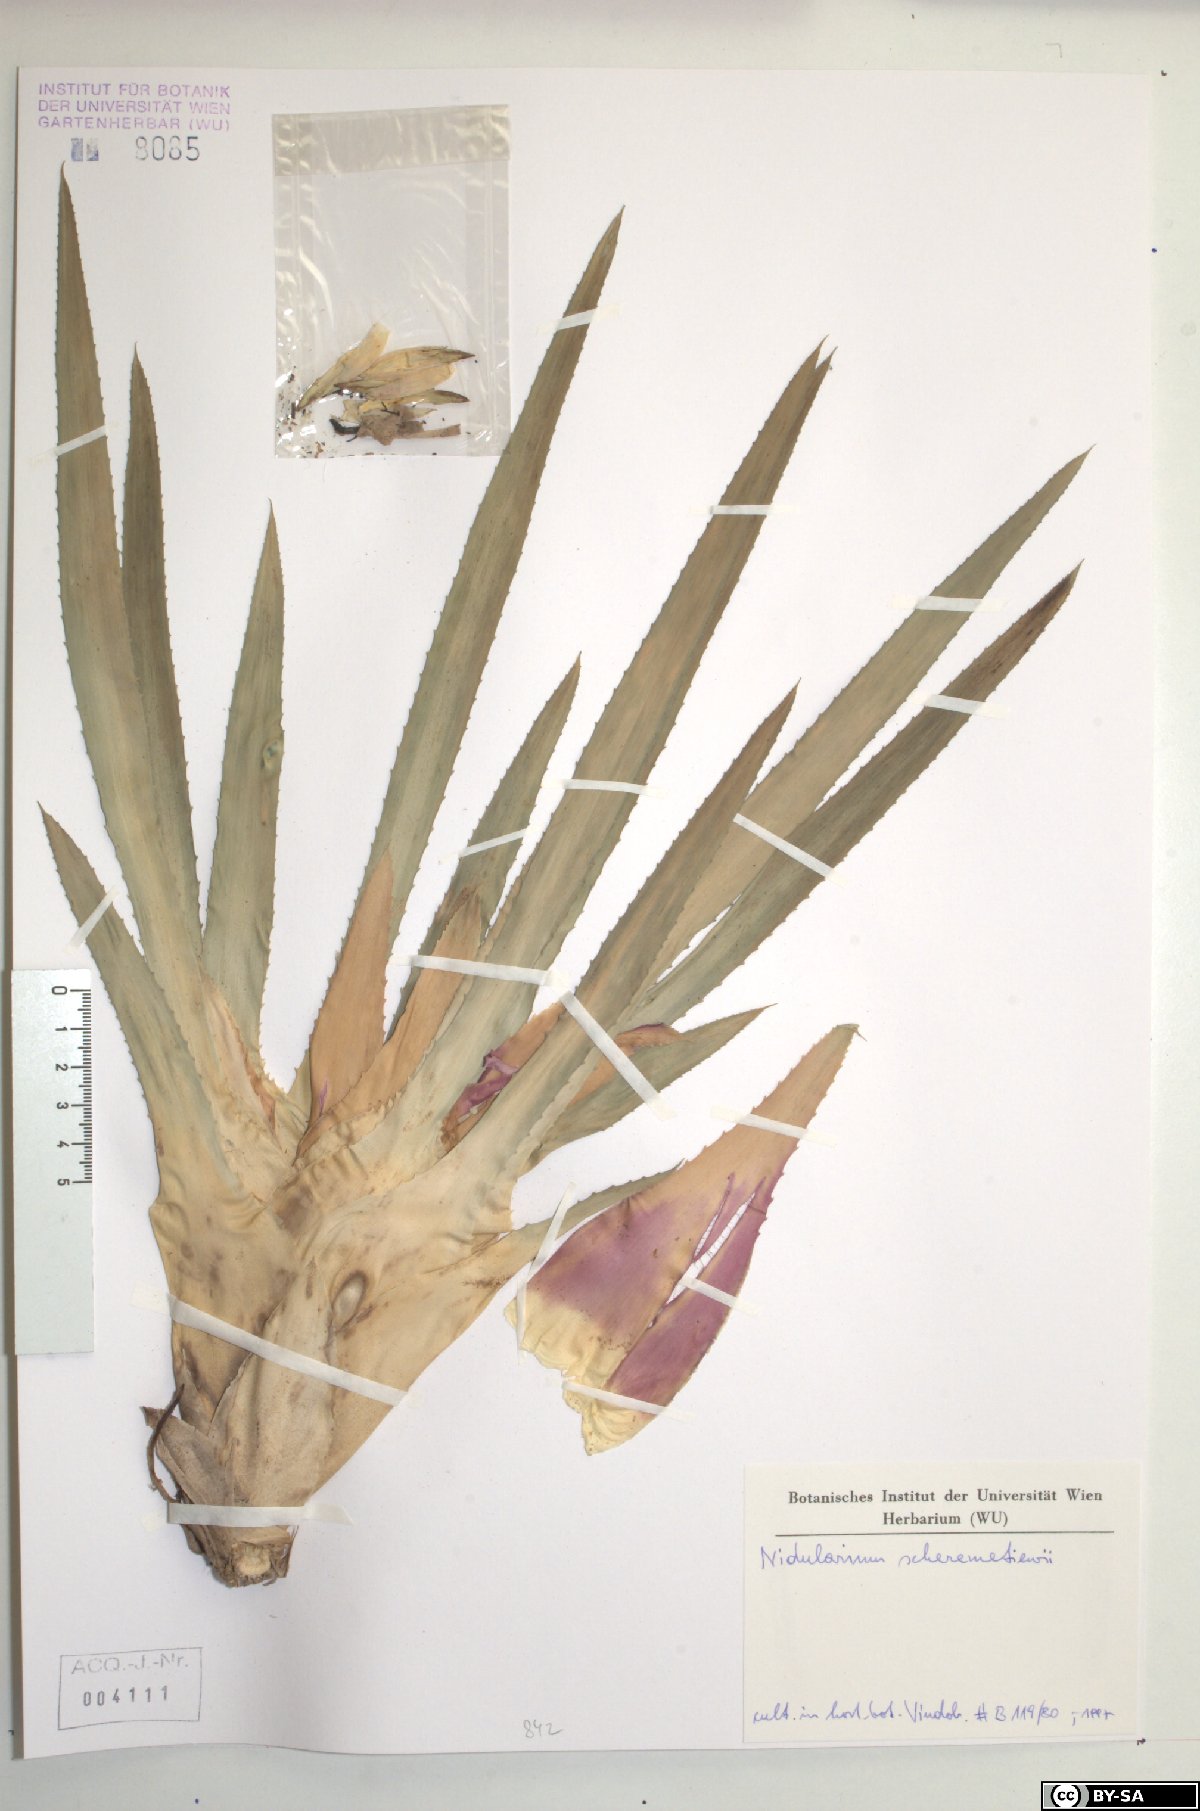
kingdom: Plantae
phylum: Tracheophyta
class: Liliopsida
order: Poales
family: Bromeliaceae
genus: Nidularium
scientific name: Nidularium scheremetiewii
